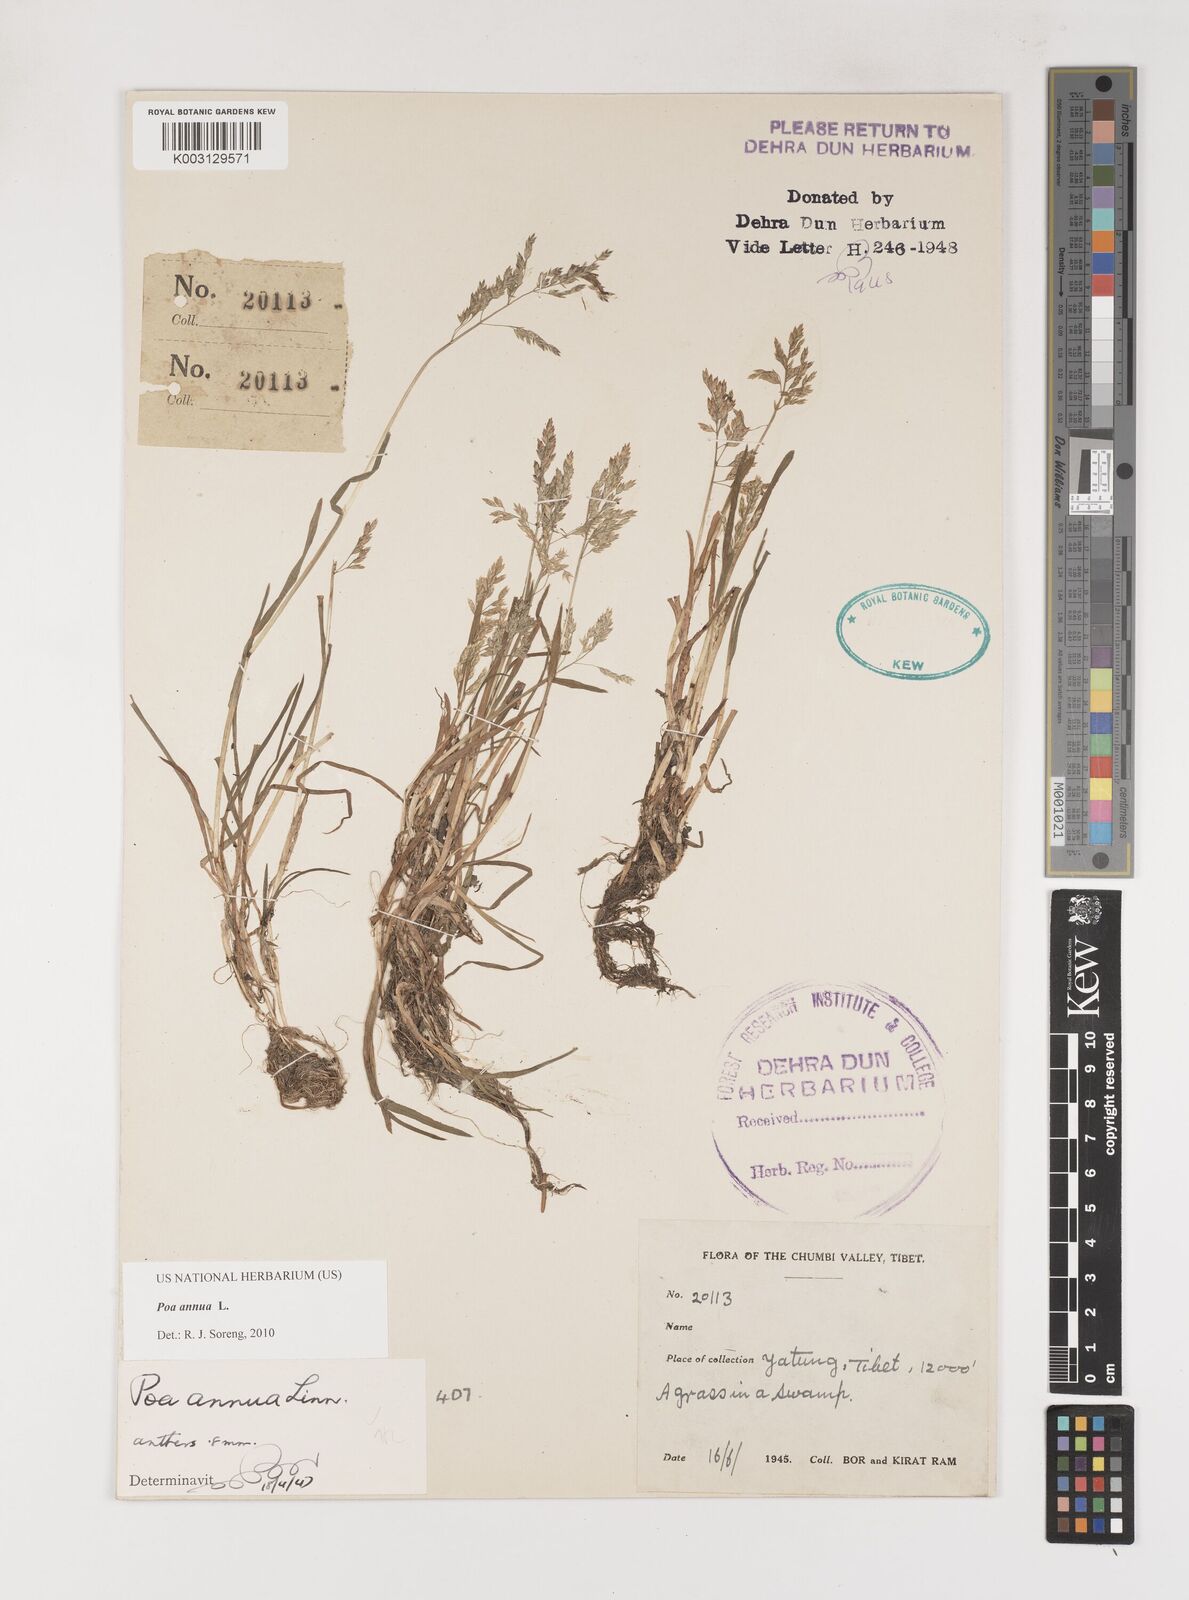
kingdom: Plantae
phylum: Tracheophyta
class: Liliopsida
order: Poales
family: Poaceae
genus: Poa
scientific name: Poa annua
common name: Annual bluegrass
